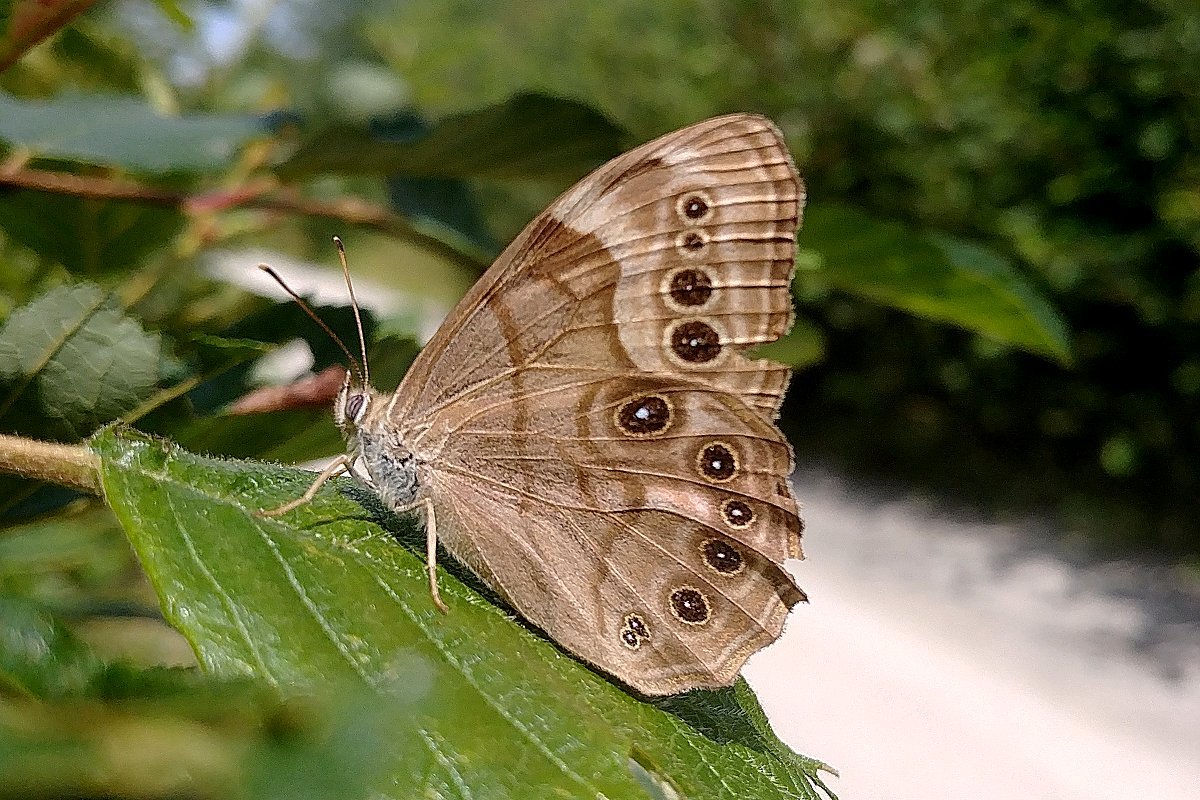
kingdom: Animalia
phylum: Arthropoda
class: Insecta
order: Lepidoptera
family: Nymphalidae
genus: Lethe
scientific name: Lethe anthedon
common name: Northern Pearly-Eye
